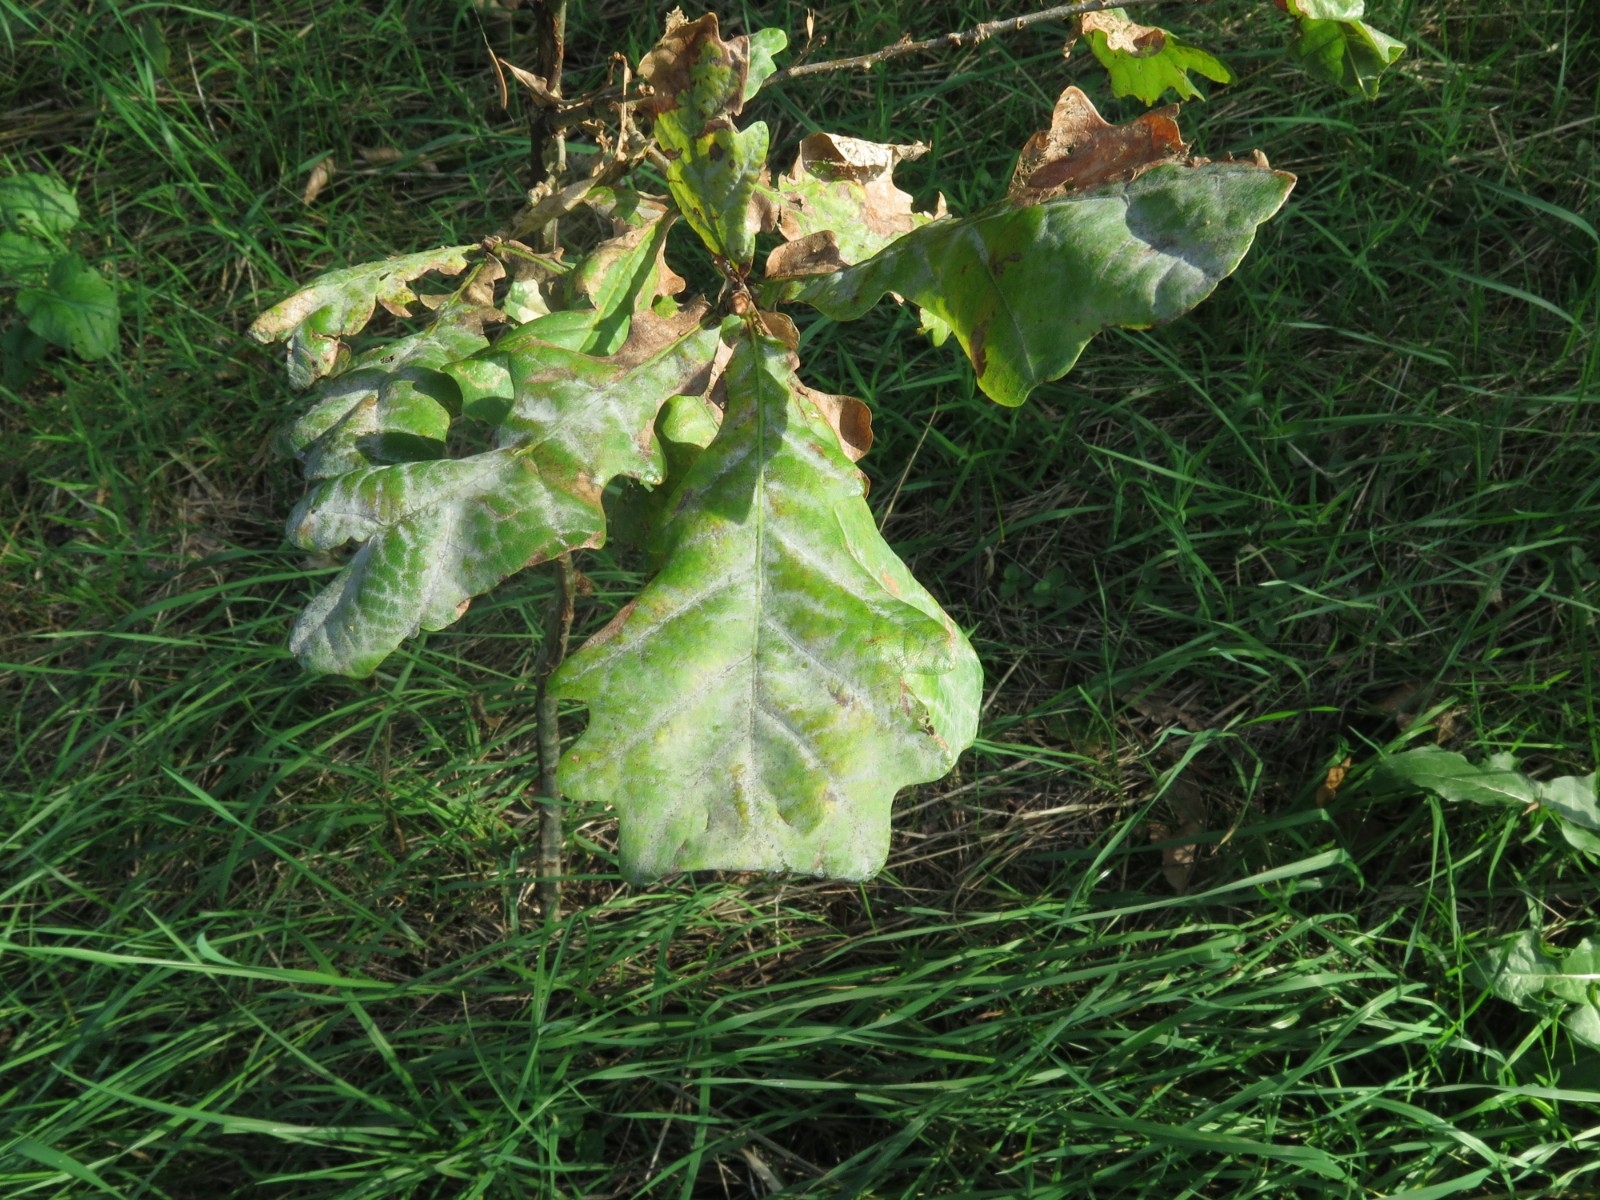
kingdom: Fungi
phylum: Ascomycota
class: Leotiomycetes
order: Helotiales
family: Erysiphaceae
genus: Erysiphe
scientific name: Erysiphe alphitoides
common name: ege-meldug
